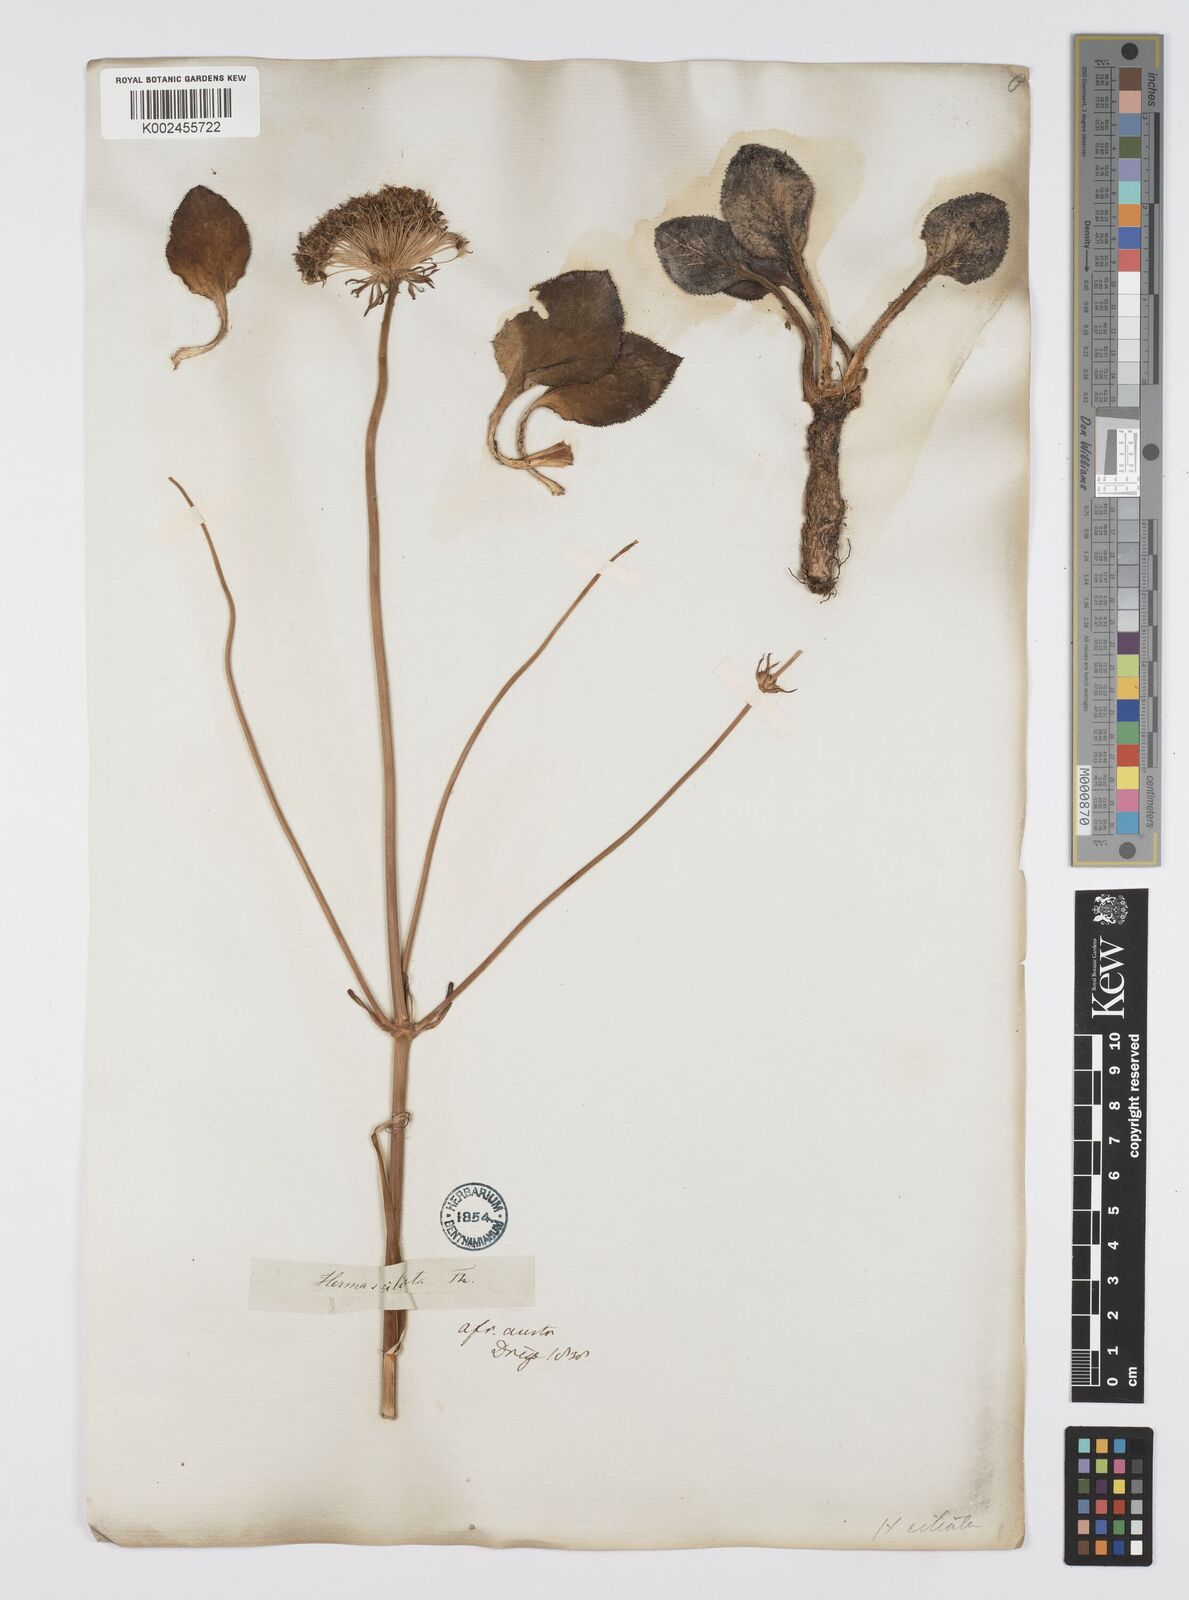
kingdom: Plantae
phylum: Tracheophyta
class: Magnoliopsida
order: Apiales
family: Apiaceae
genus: Hermas
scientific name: Hermas
